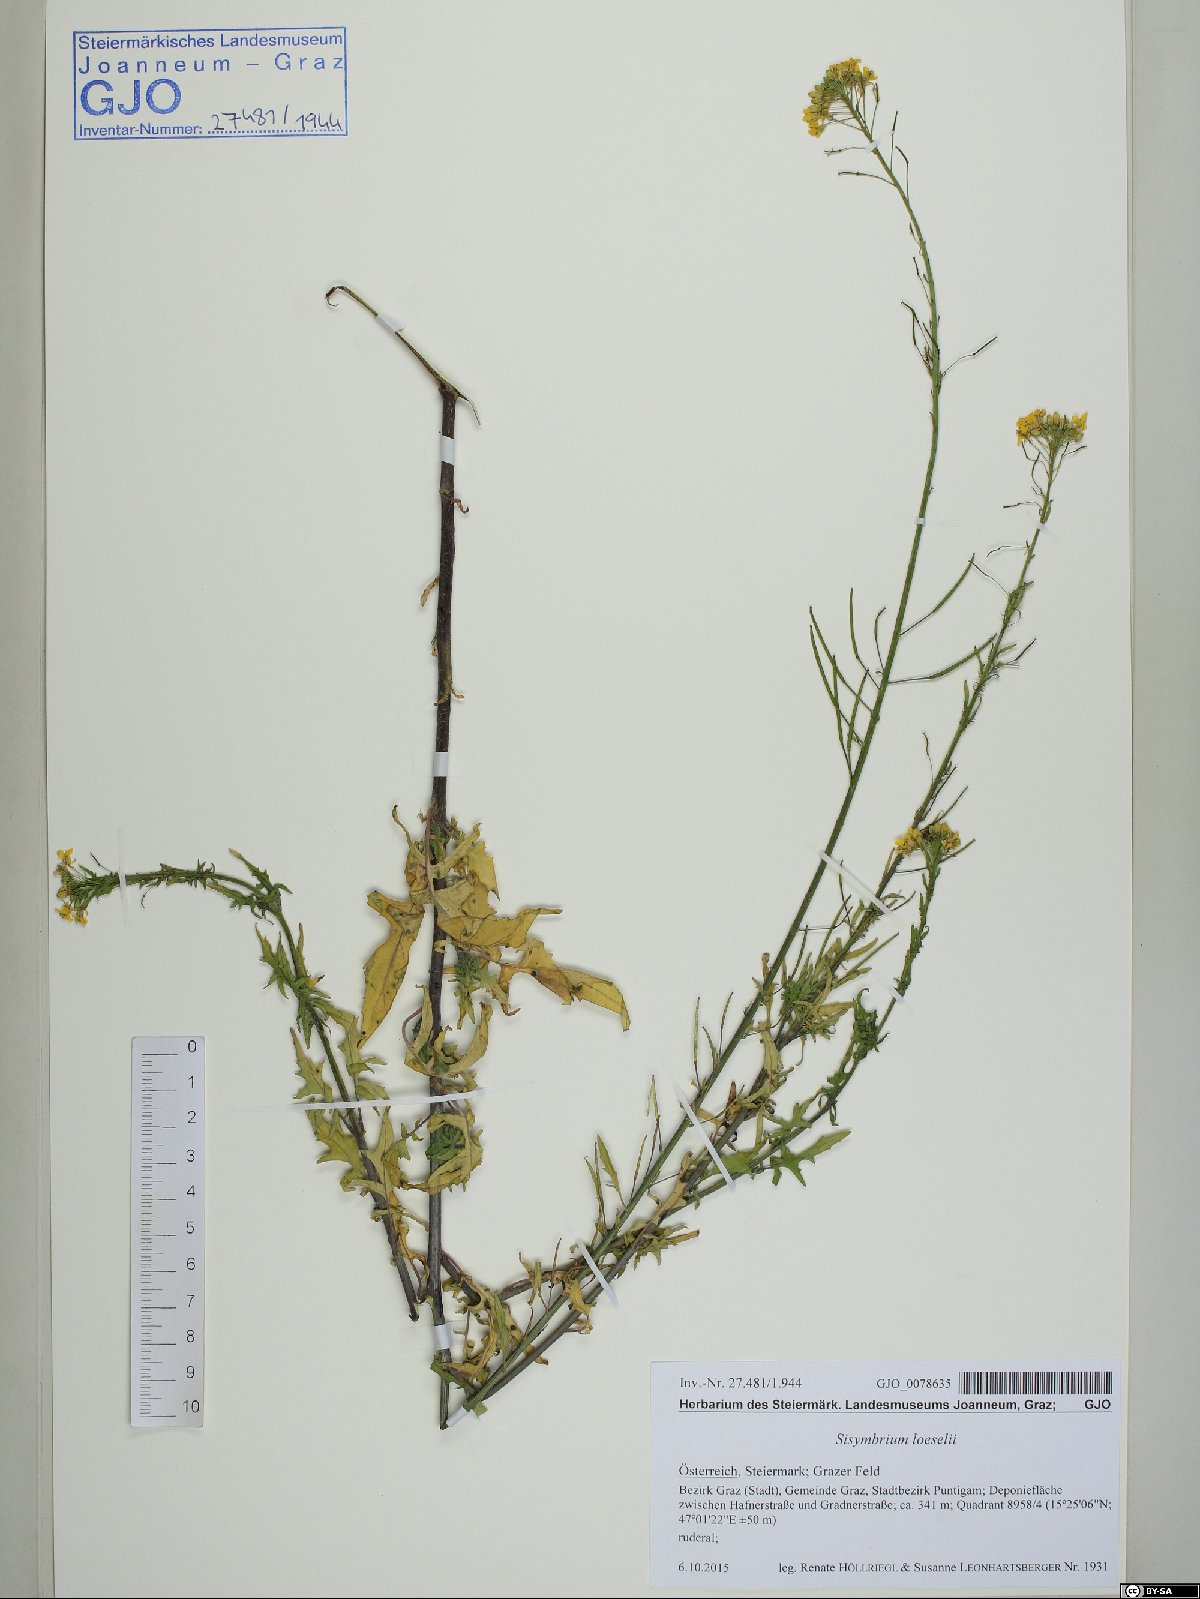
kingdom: Plantae
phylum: Tracheophyta
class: Magnoliopsida
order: Brassicales
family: Brassicaceae
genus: Sisymbrium
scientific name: Sisymbrium loeselii
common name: False london-rocket
